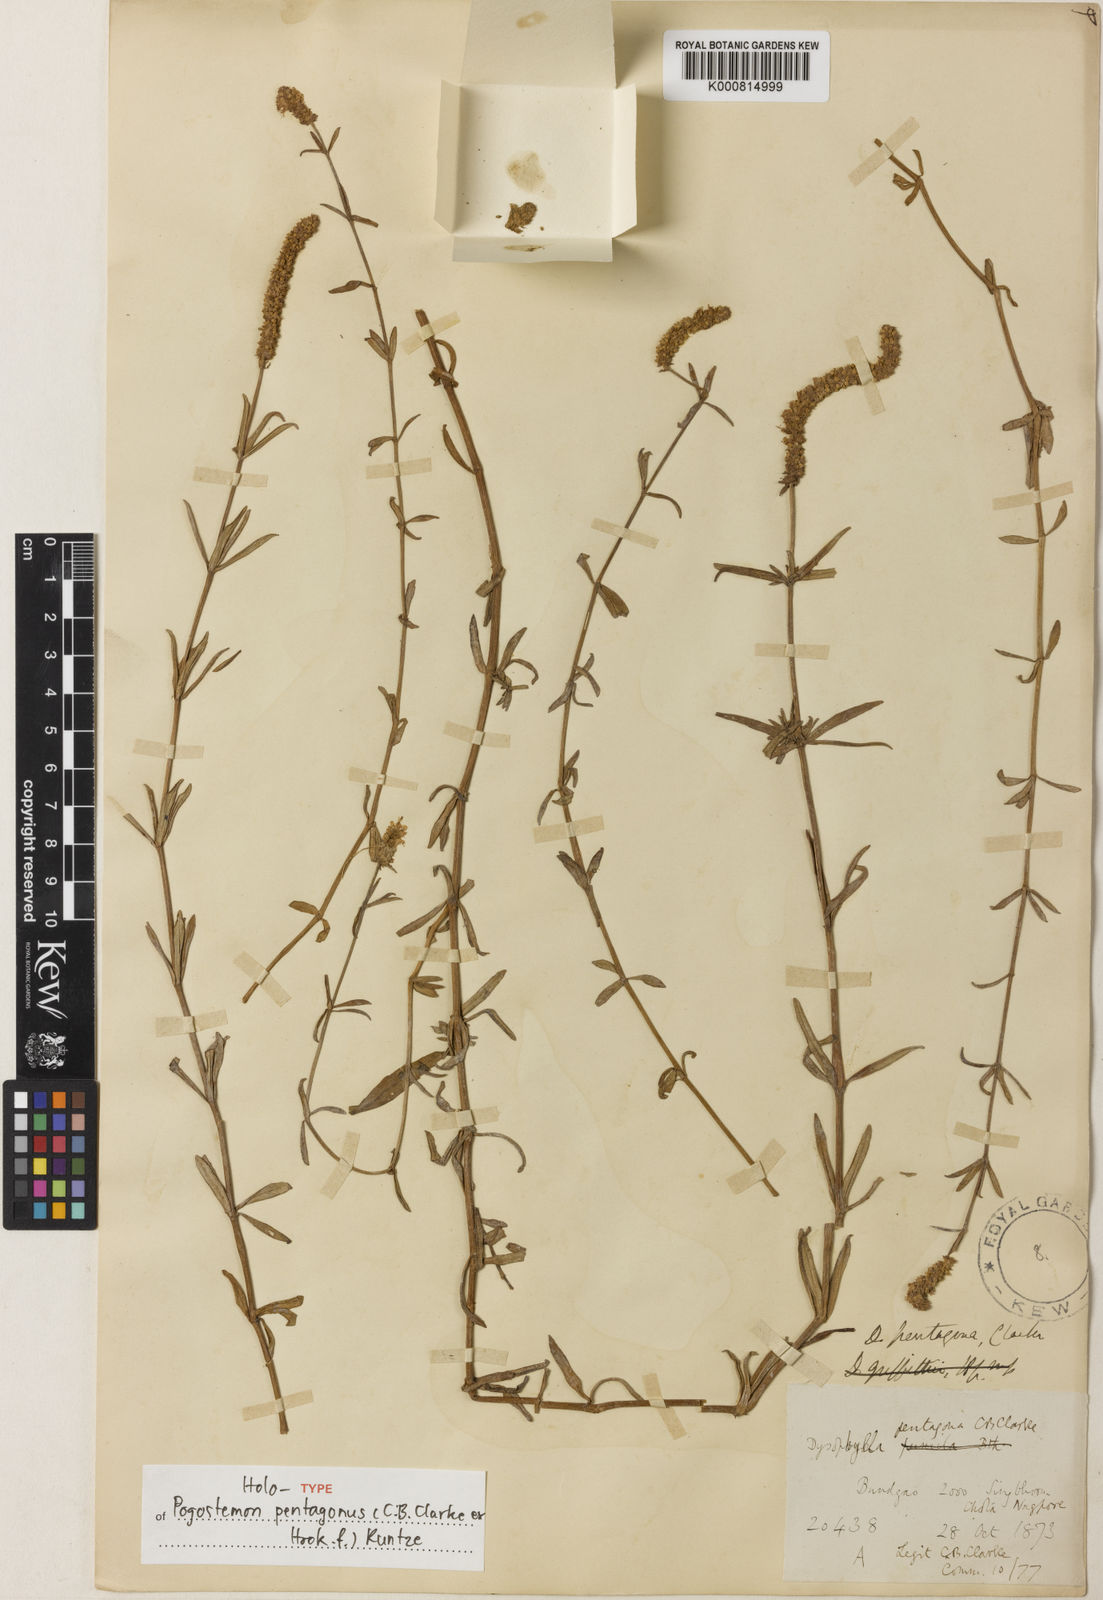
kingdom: Plantae
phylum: Tracheophyta
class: Magnoliopsida
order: Lamiales
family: Lamiaceae
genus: Pogostemon
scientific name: Pogostemon pentagonus
